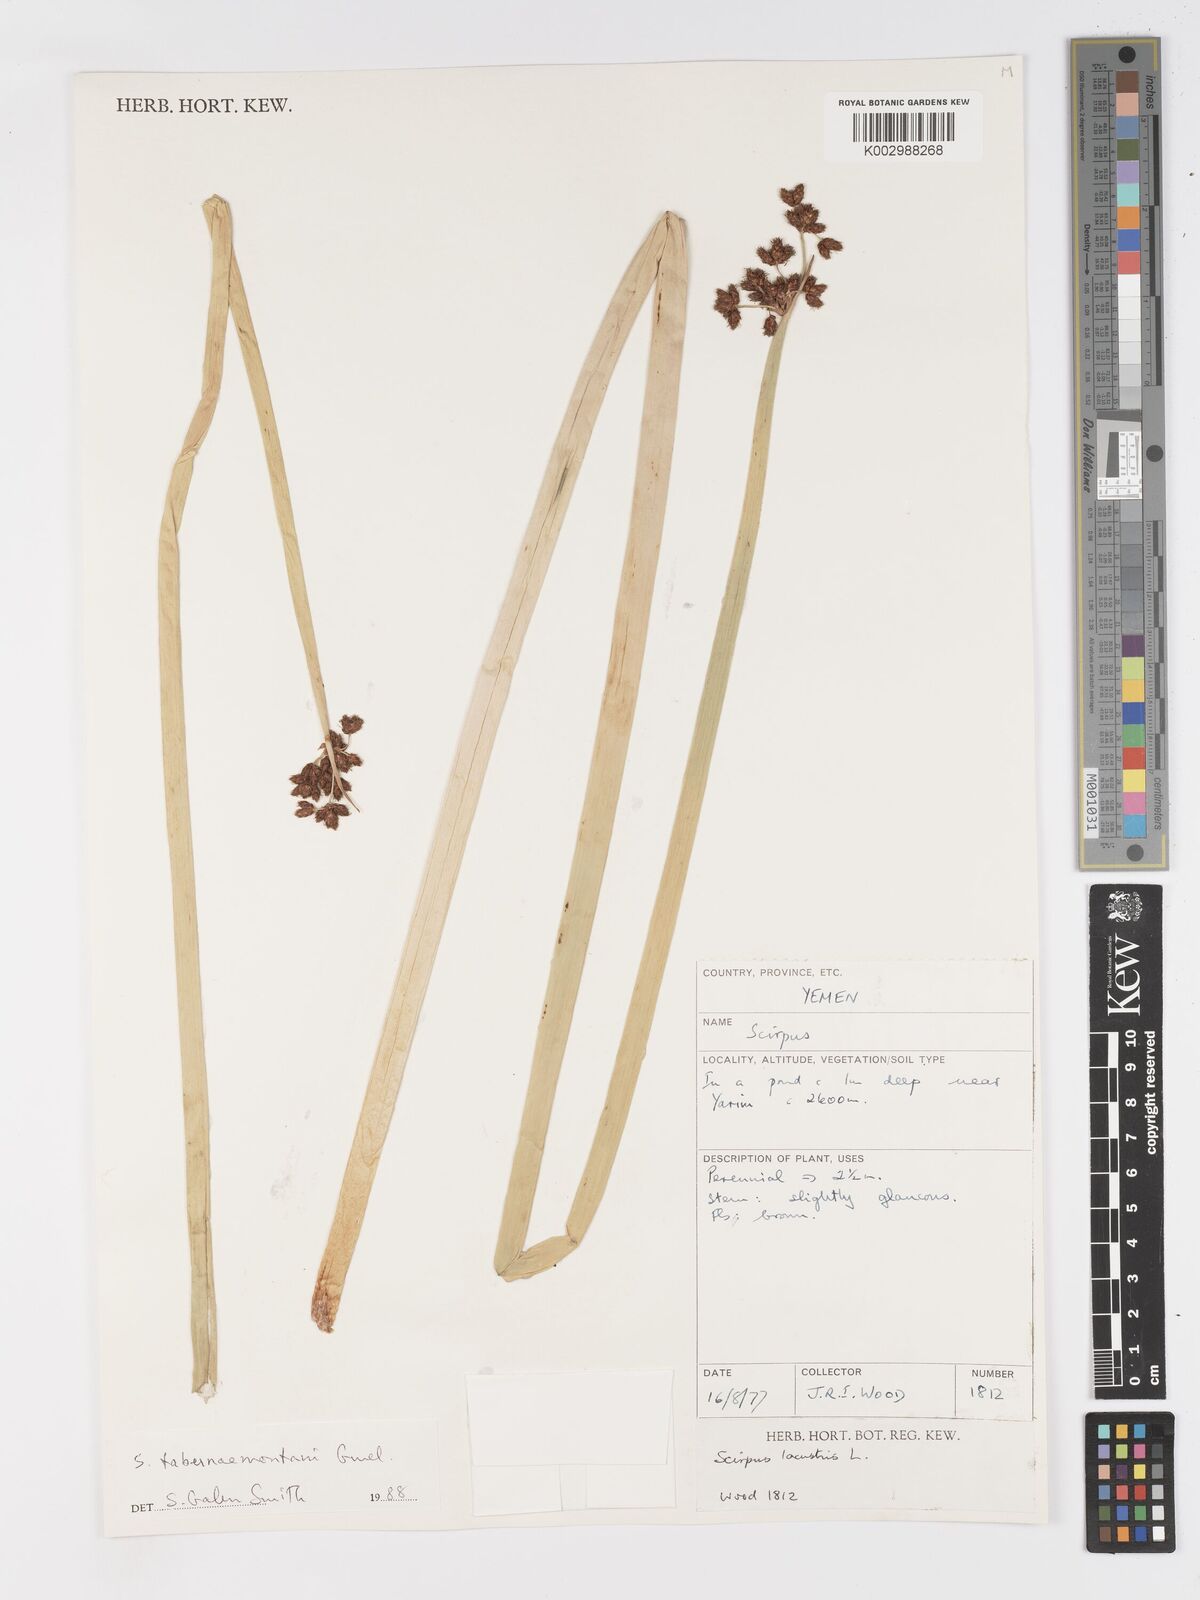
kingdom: Plantae
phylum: Tracheophyta
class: Liliopsida
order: Poales
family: Cyperaceae
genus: Schoenoplectus
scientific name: Schoenoplectus tabernaemontani
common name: Grey club-rush
